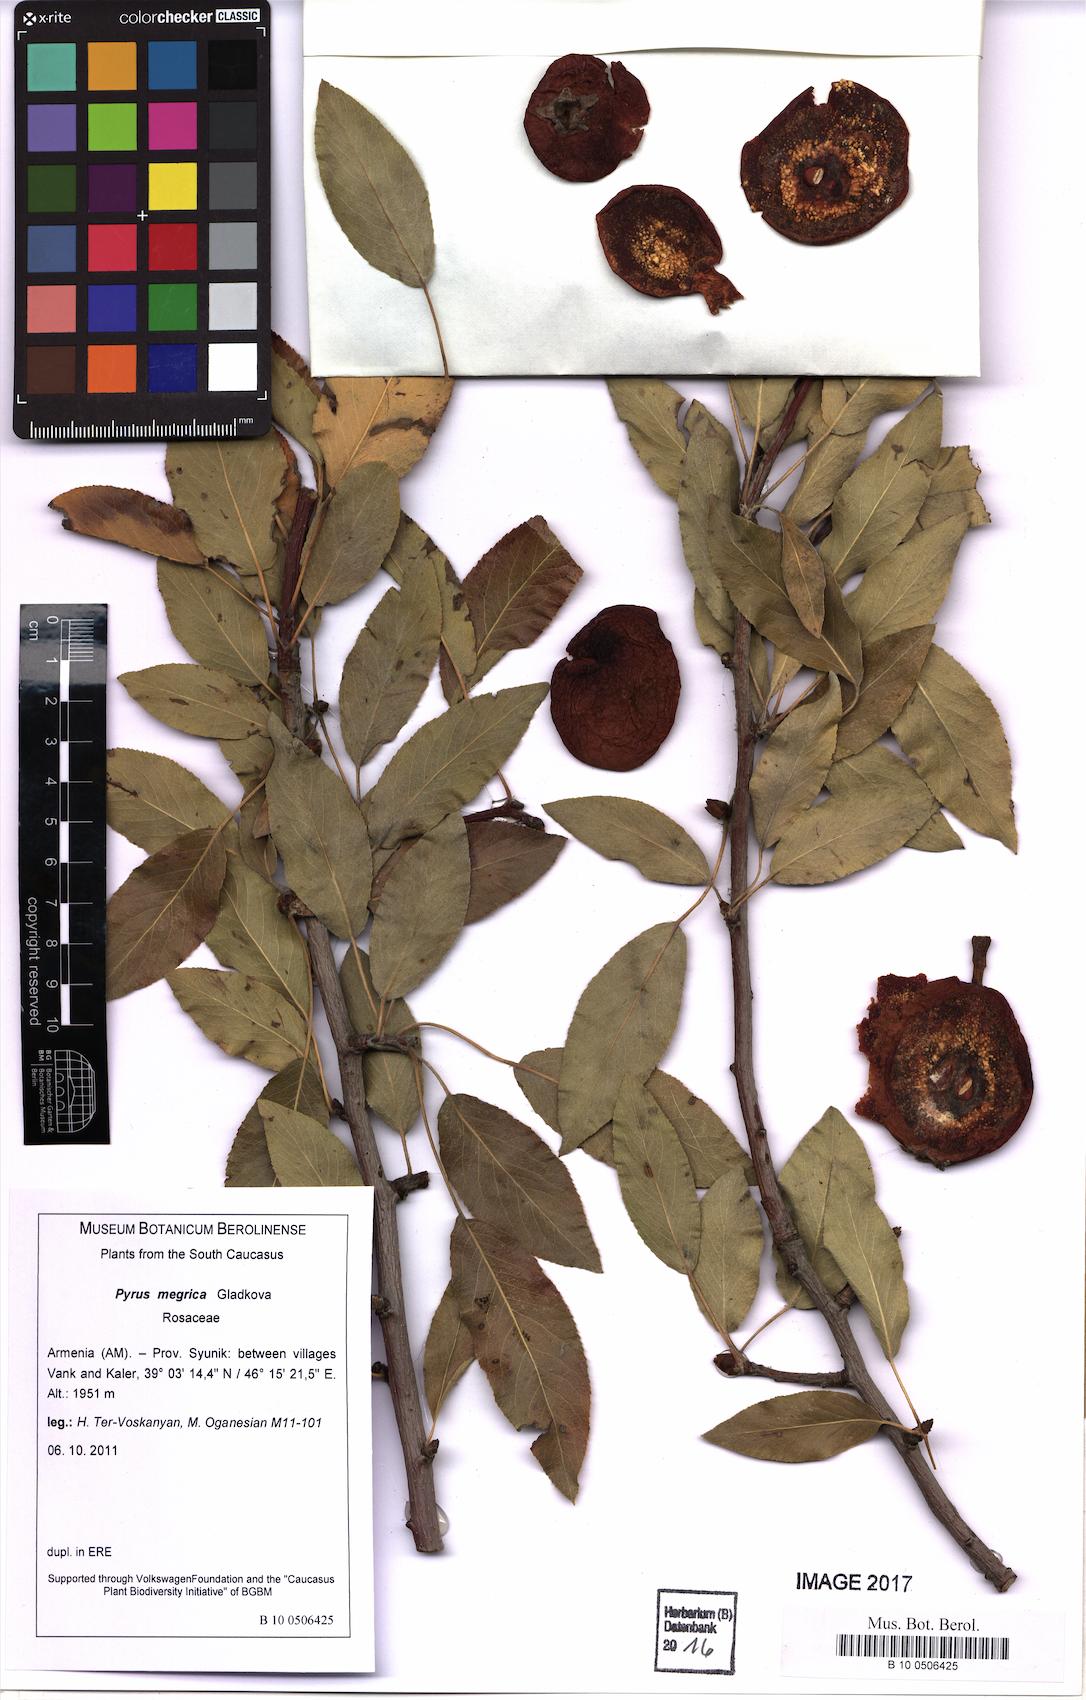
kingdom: Plantae
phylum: Tracheophyta
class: Magnoliopsida
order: Rosales
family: Rosaceae
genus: Pyrus
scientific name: Pyrus megrica
